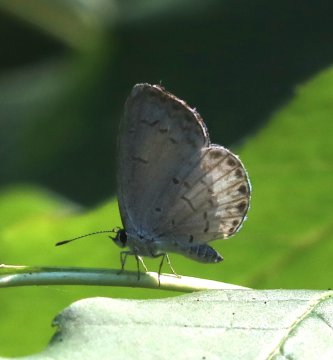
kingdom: Animalia
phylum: Arthropoda
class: Insecta
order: Lepidoptera
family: Lycaenidae
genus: Cyaniris
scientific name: Cyaniris neglecta
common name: Summer Azure
